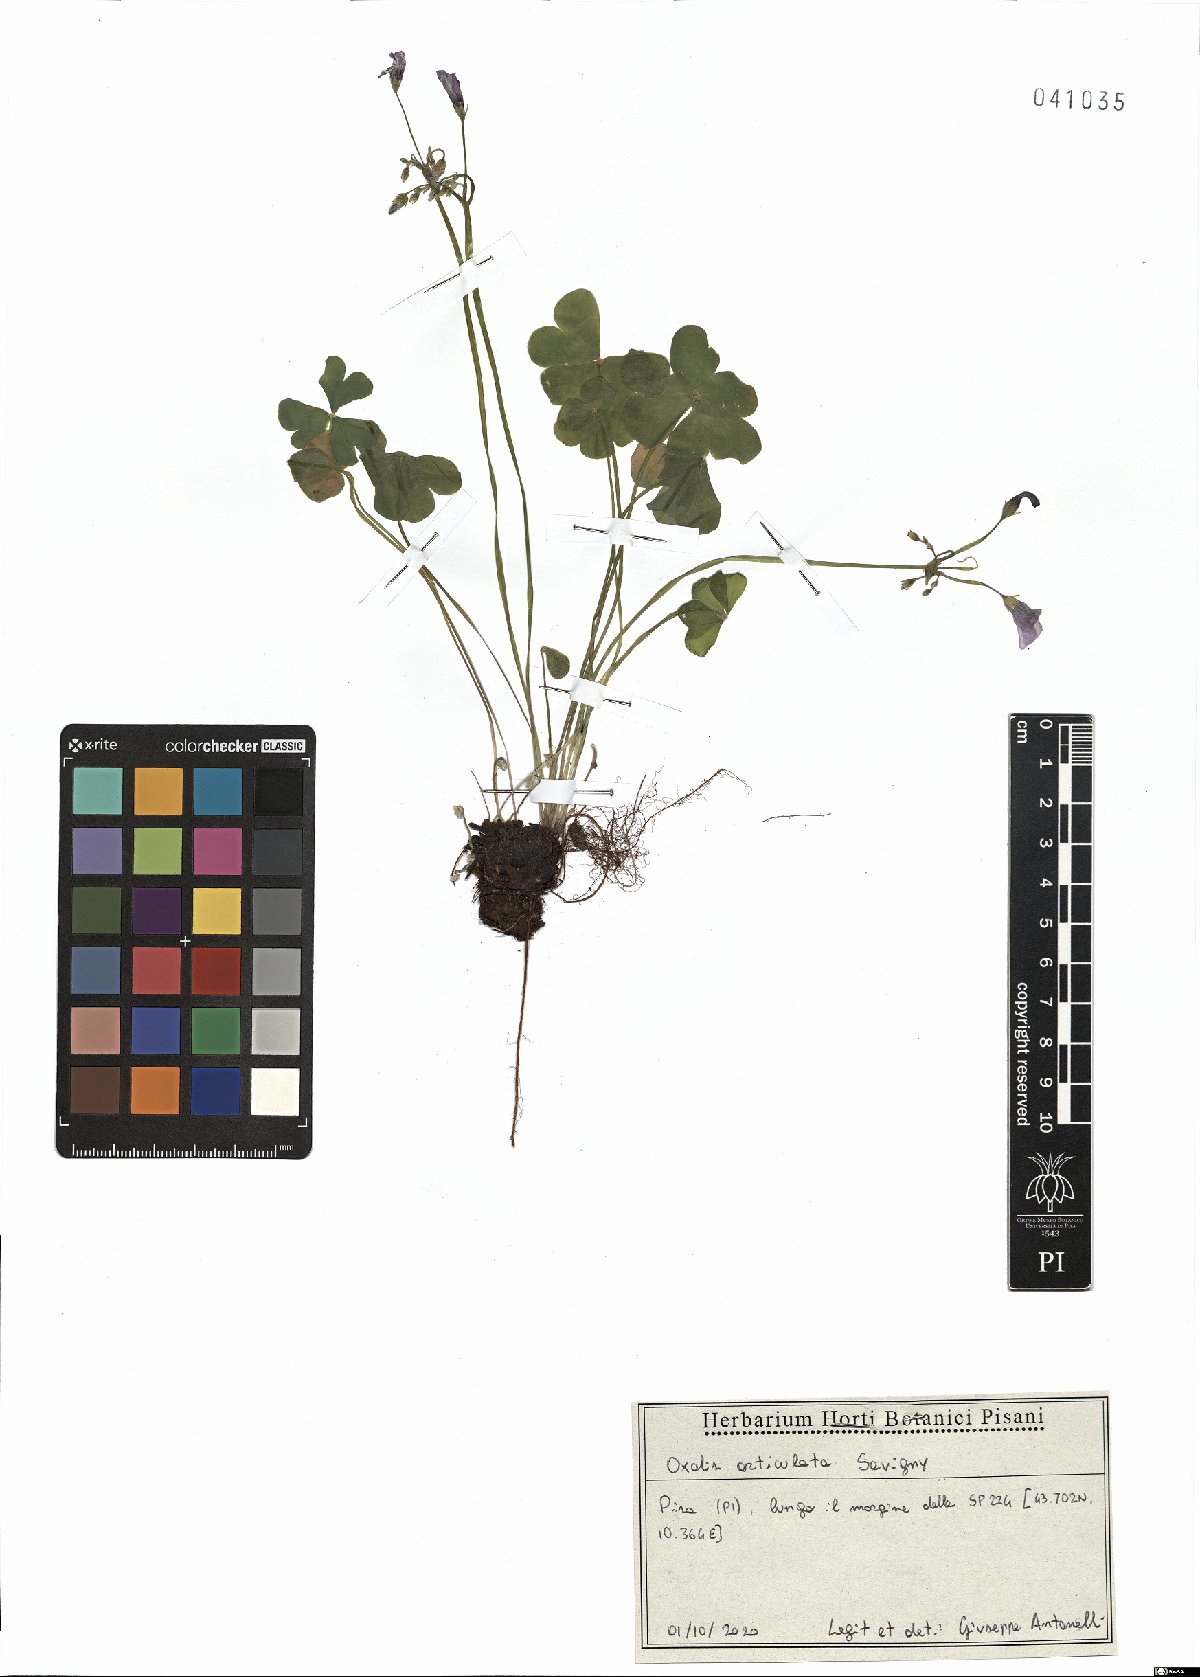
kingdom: Plantae
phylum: Tracheophyta
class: Magnoliopsida
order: Oxalidales
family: Oxalidaceae
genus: Oxalis
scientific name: Oxalis articulata
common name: Pink-sorrel
